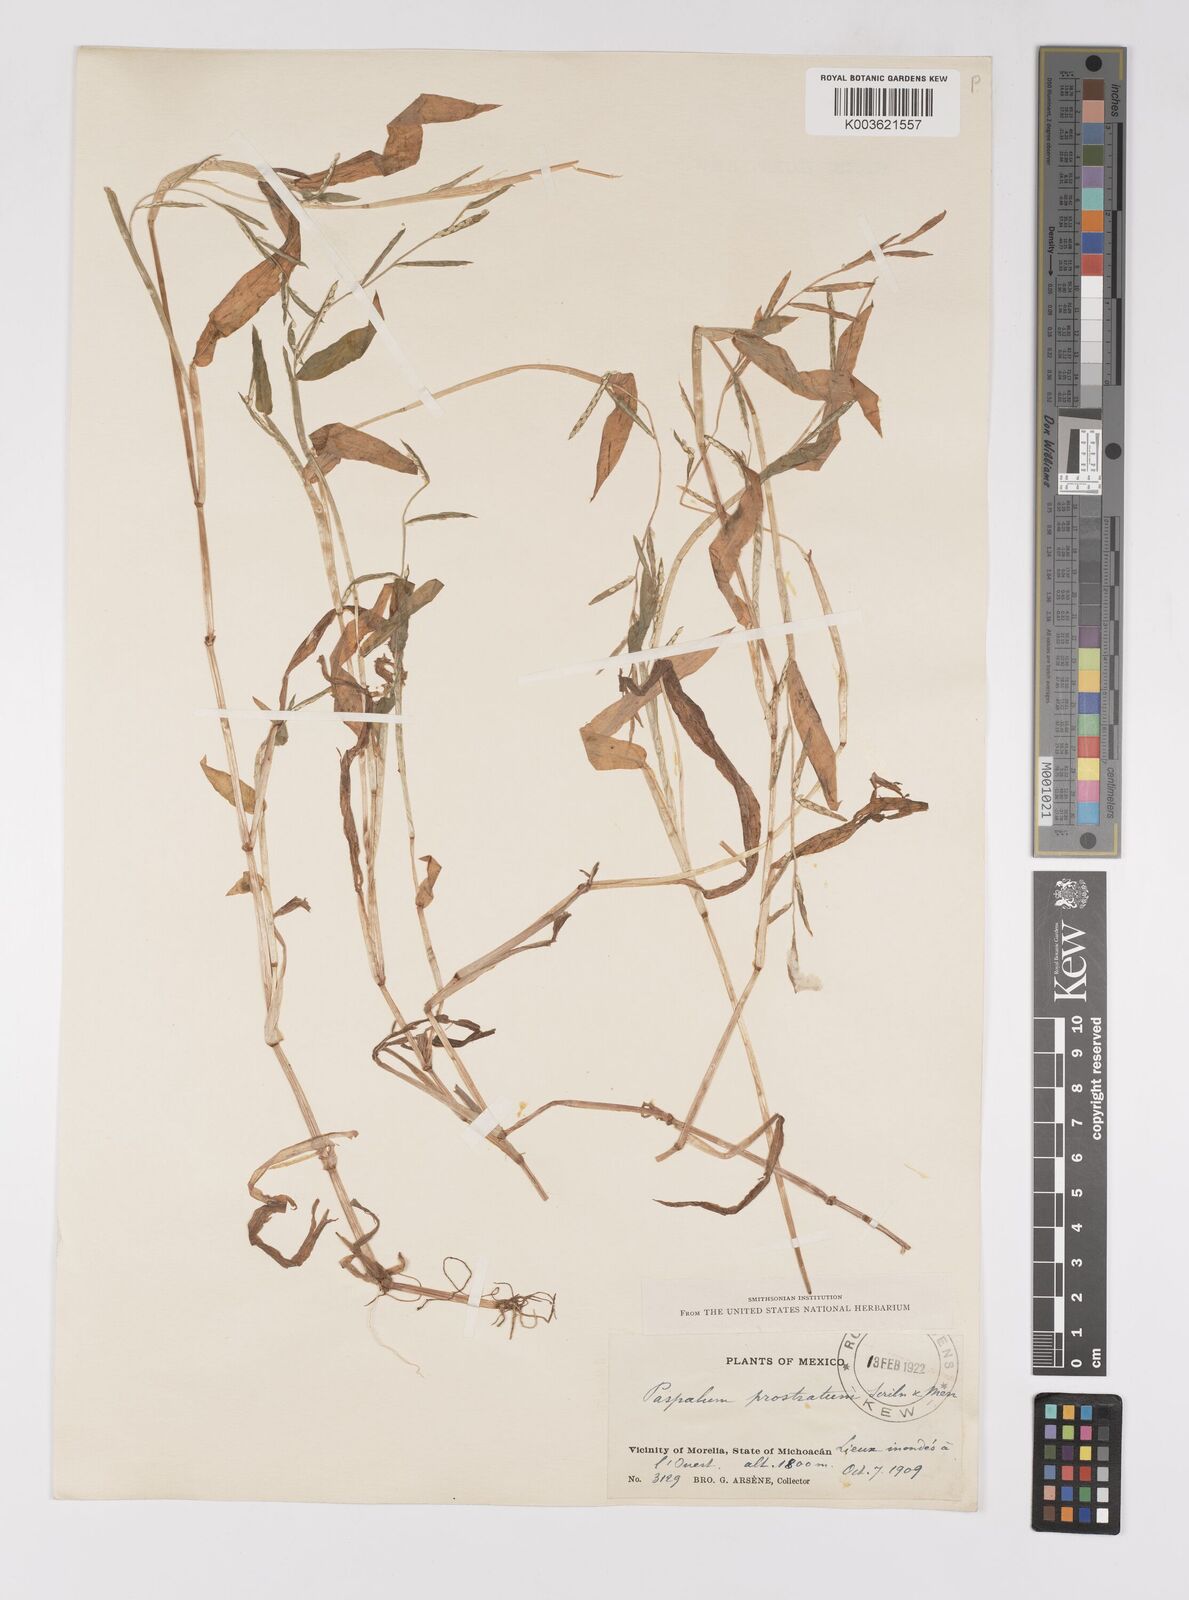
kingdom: Plantae
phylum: Tracheophyta
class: Liliopsida
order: Poales
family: Poaceae
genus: Paspalum
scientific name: Paspalum prostratum
